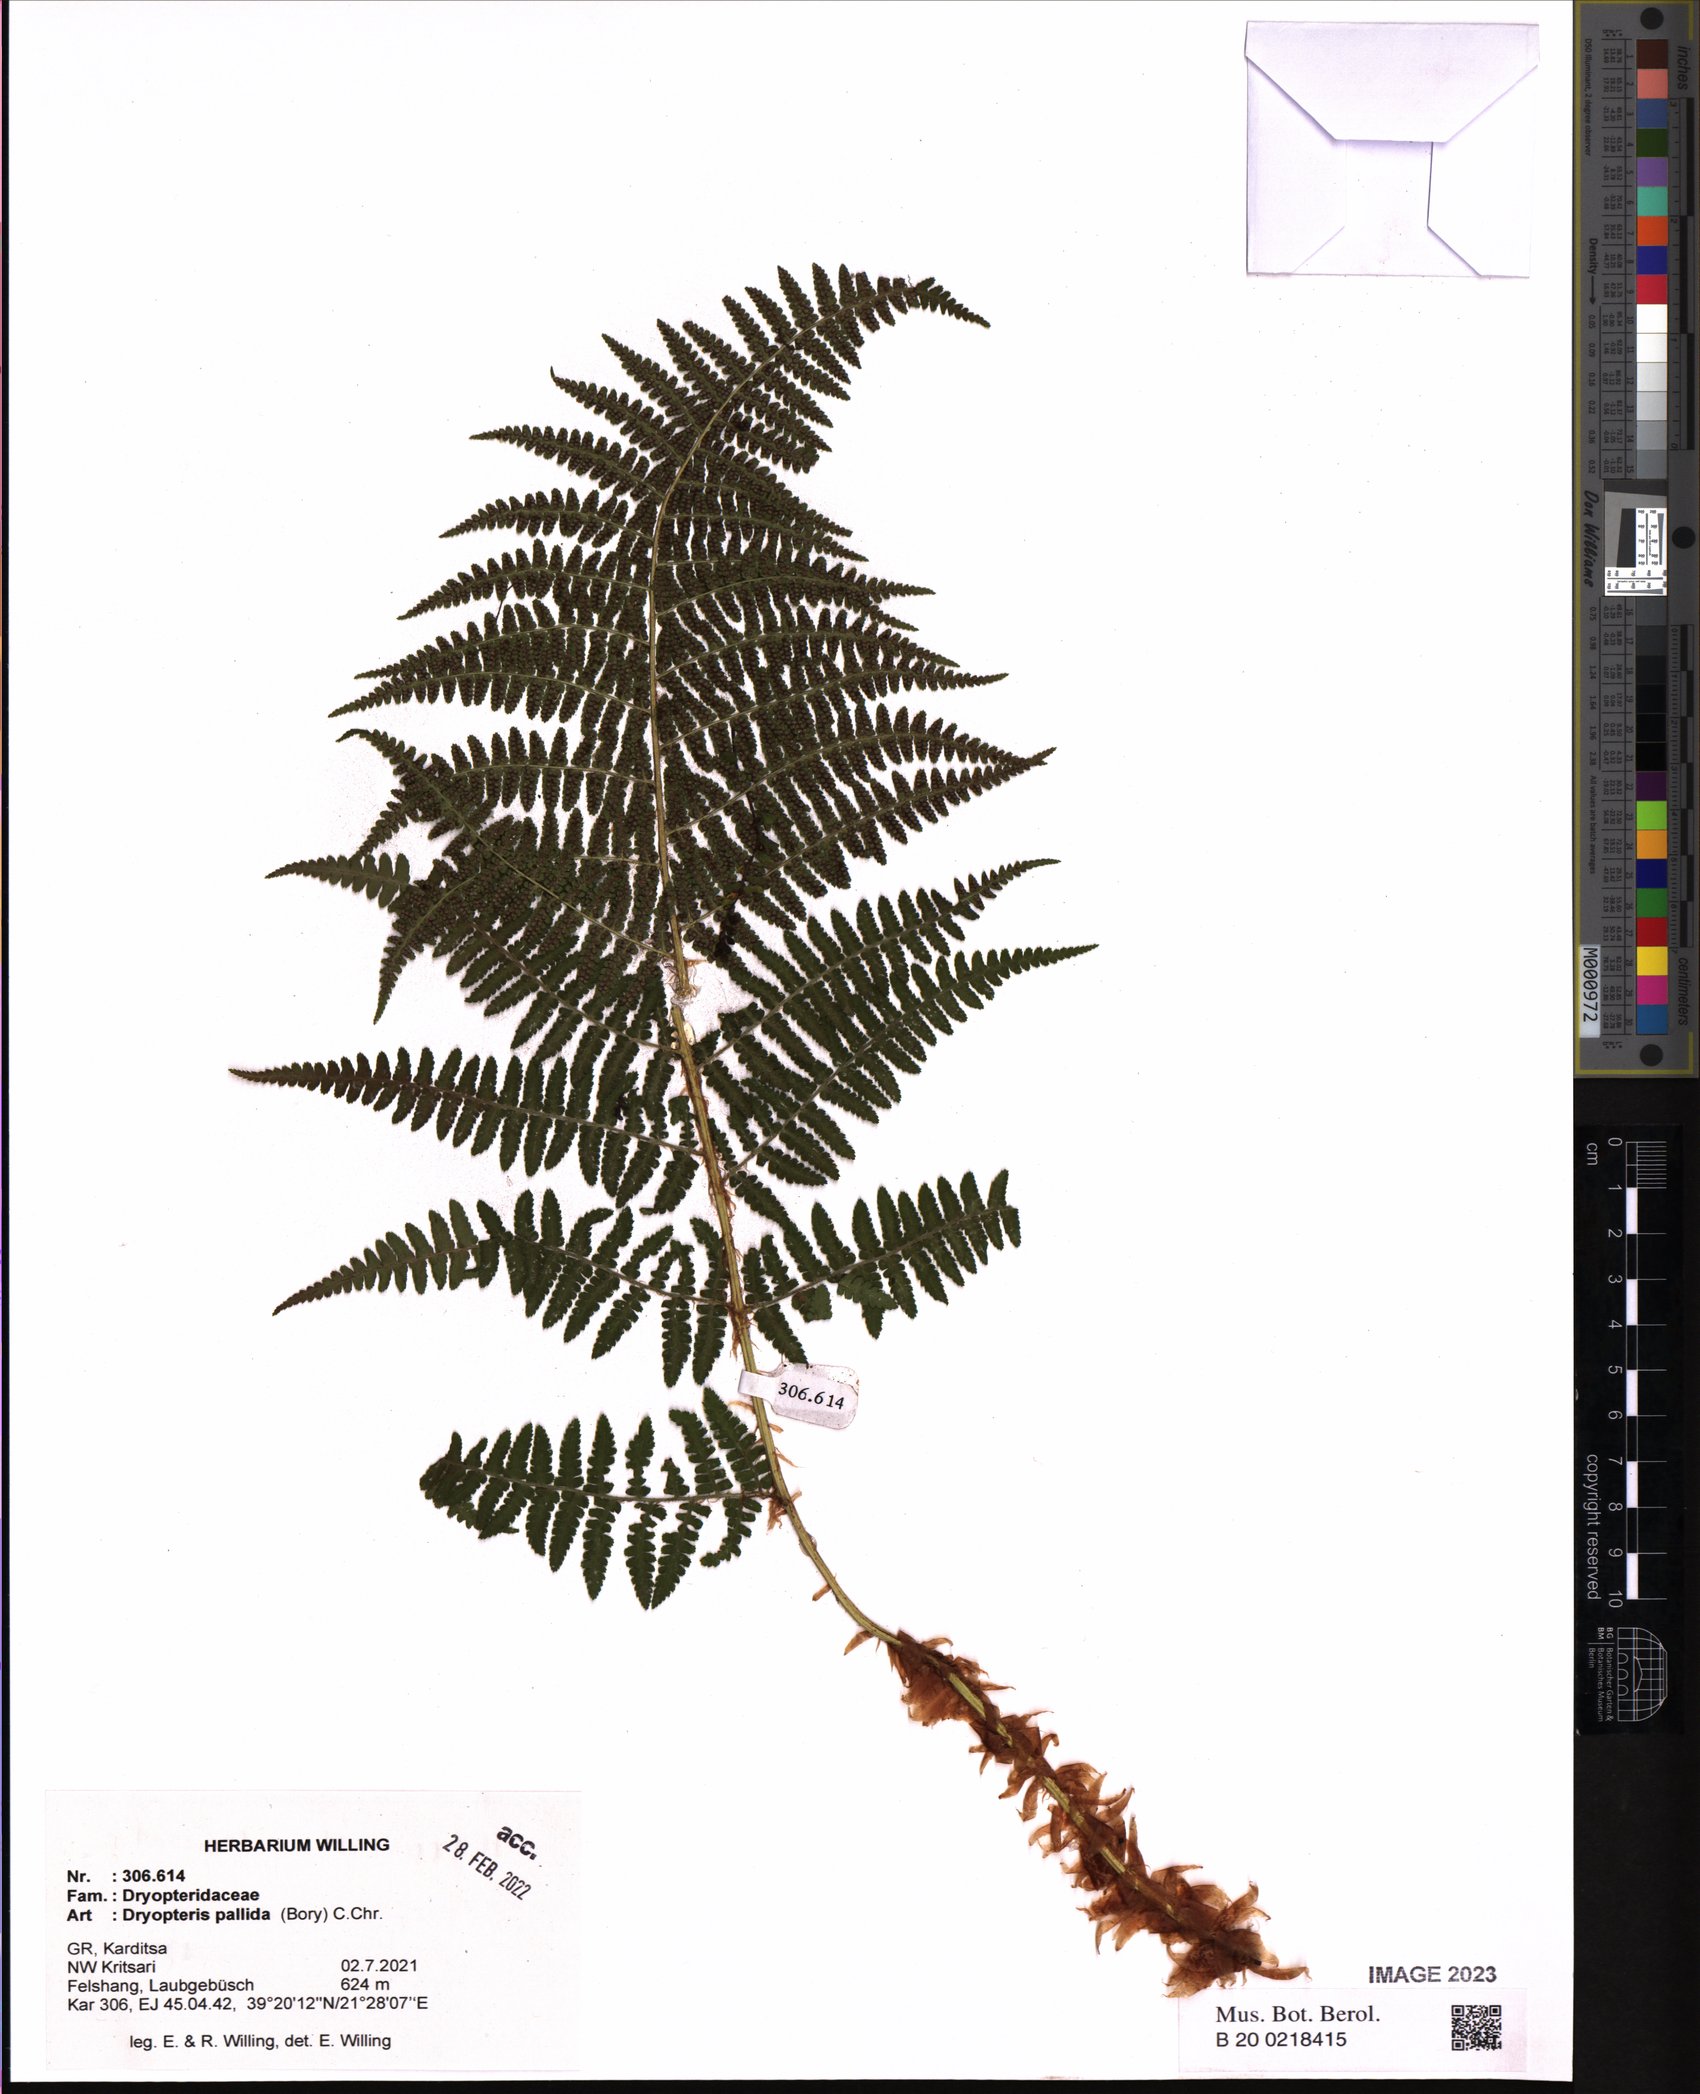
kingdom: Plantae
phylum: Tracheophyta
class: Polypodiopsida
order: Polypodiales
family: Dryopteridaceae
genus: Dryopteris
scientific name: Dryopteris pallida
